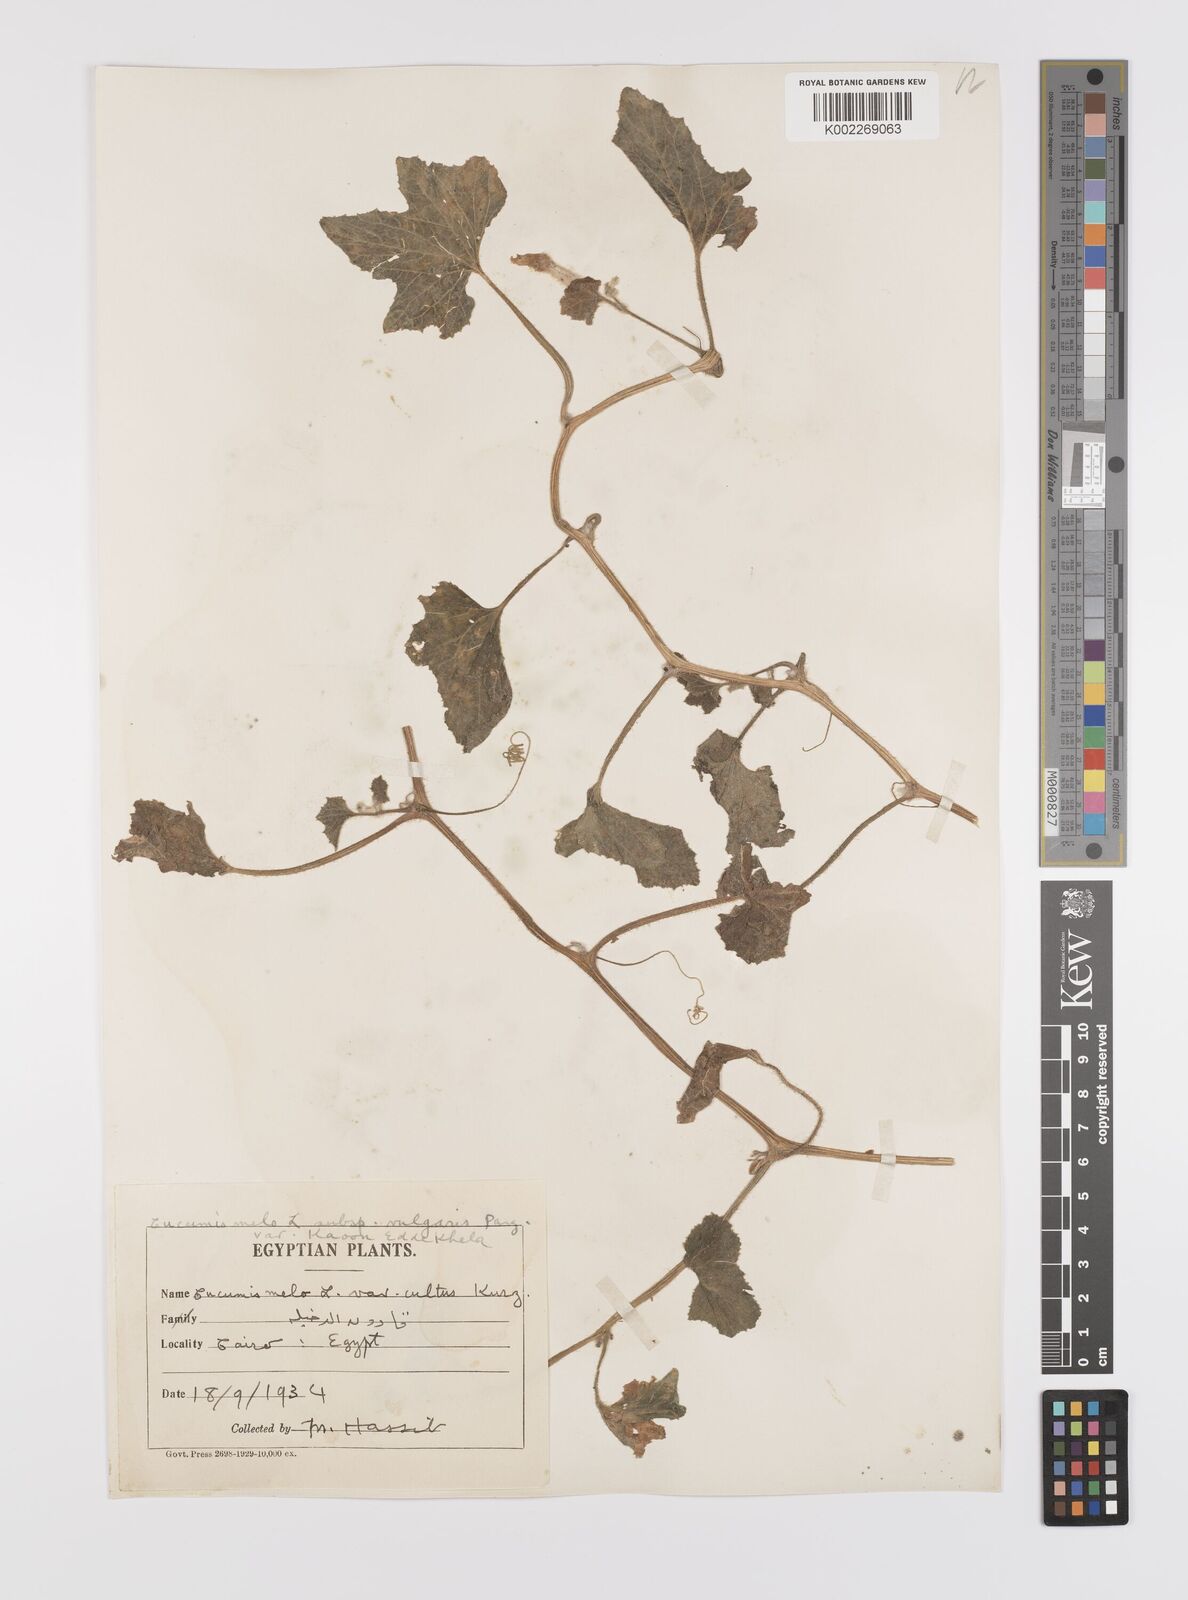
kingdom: Plantae
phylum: Tracheophyta
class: Magnoliopsida
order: Cucurbitales
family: Cucurbitaceae
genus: Cucumis
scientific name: Cucumis melo
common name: Melon
